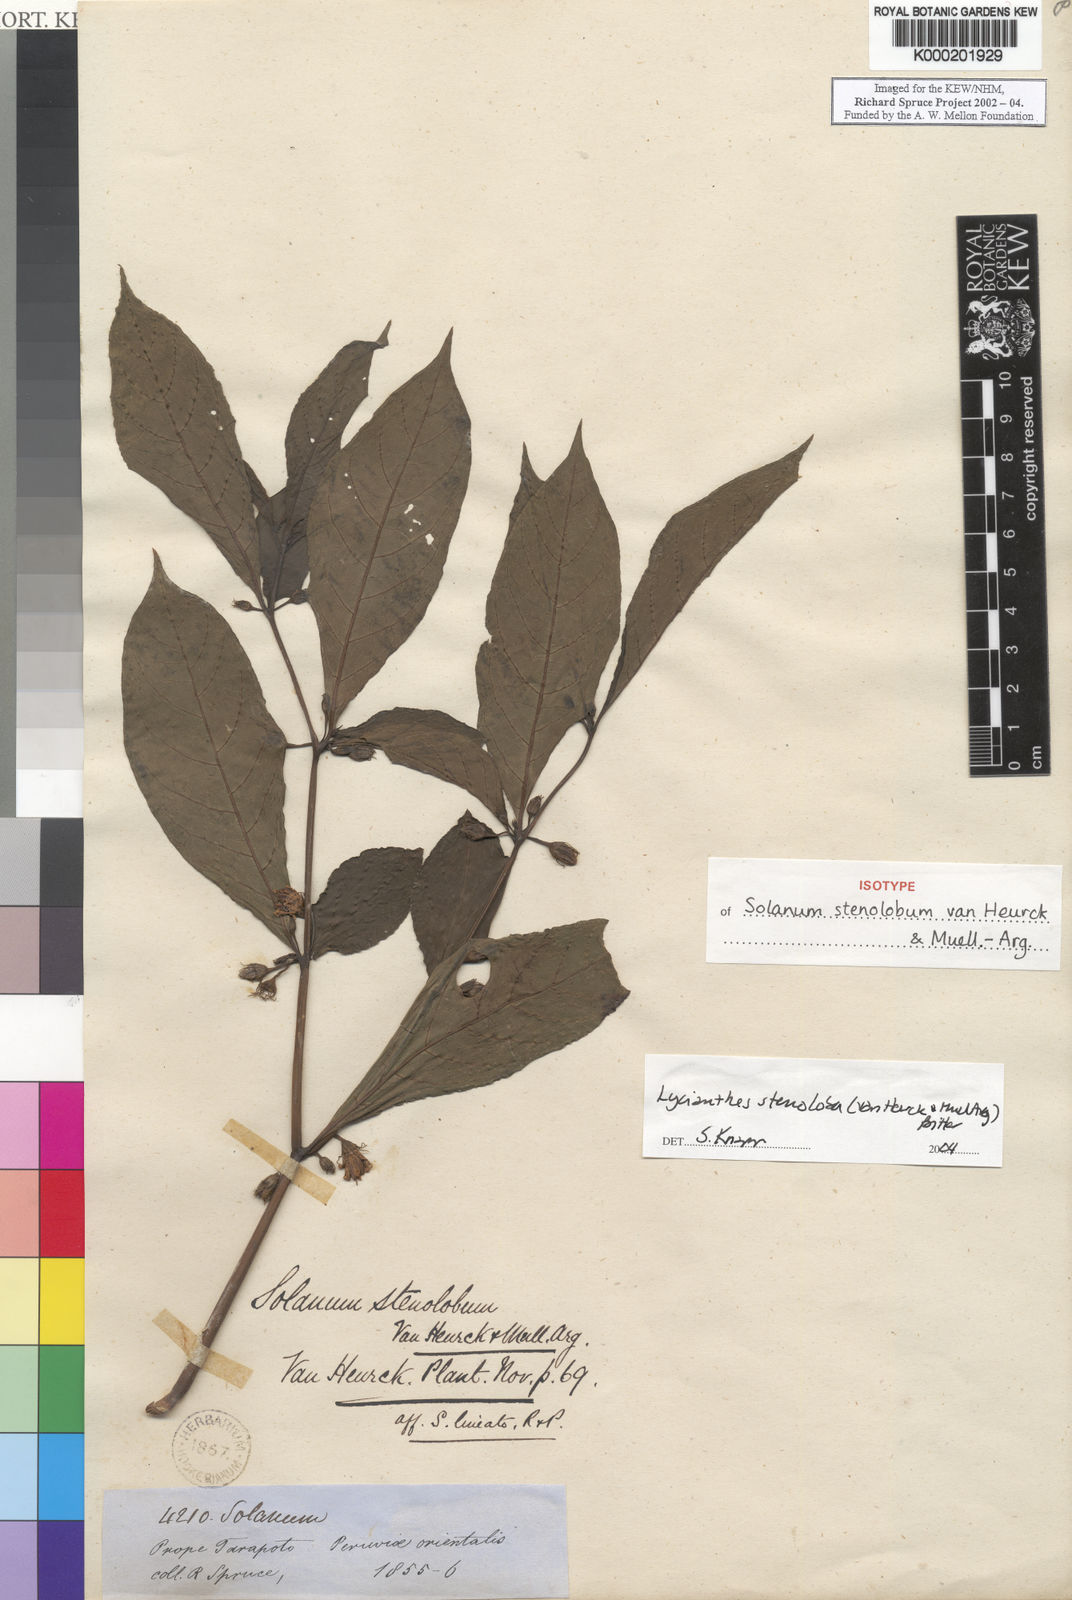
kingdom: Plantae
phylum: Tracheophyta
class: Magnoliopsida
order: Solanales
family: Solanaceae
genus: Lycianthes
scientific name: Lycianthes
